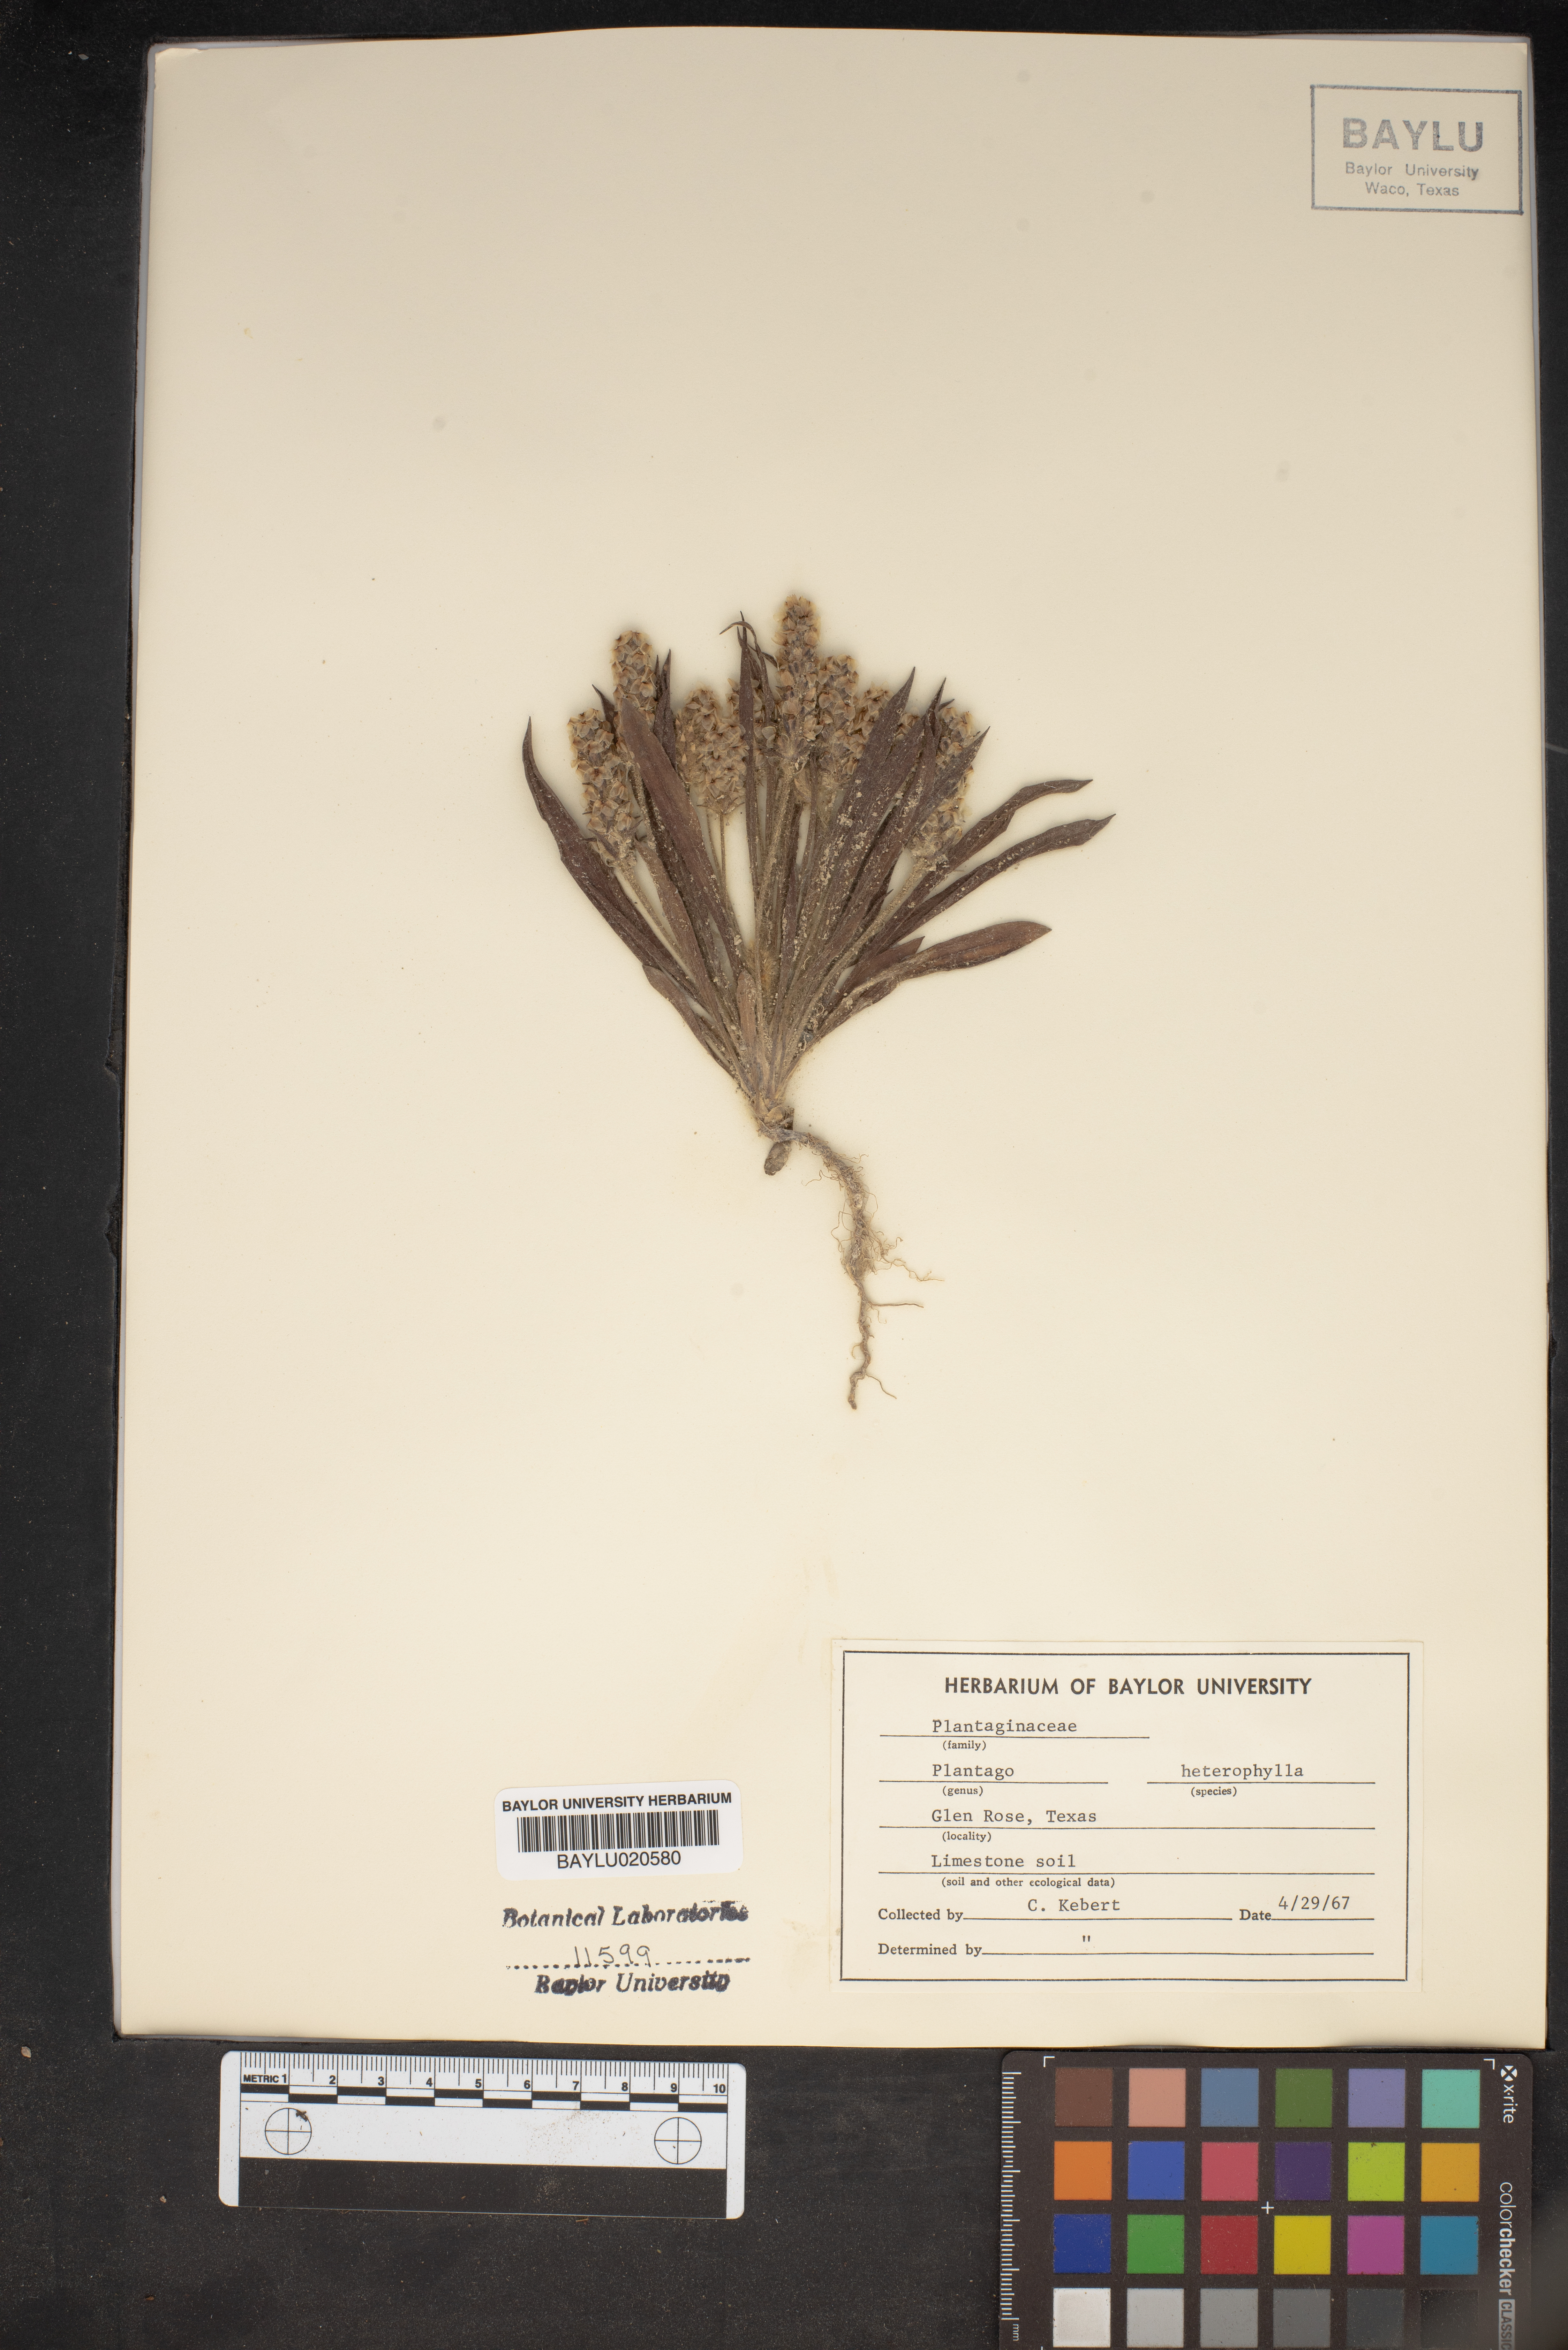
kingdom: Plantae
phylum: Tracheophyta
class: Magnoliopsida
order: Lamiales
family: Plantaginaceae
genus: Plantago
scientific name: Plantago heterophylla
